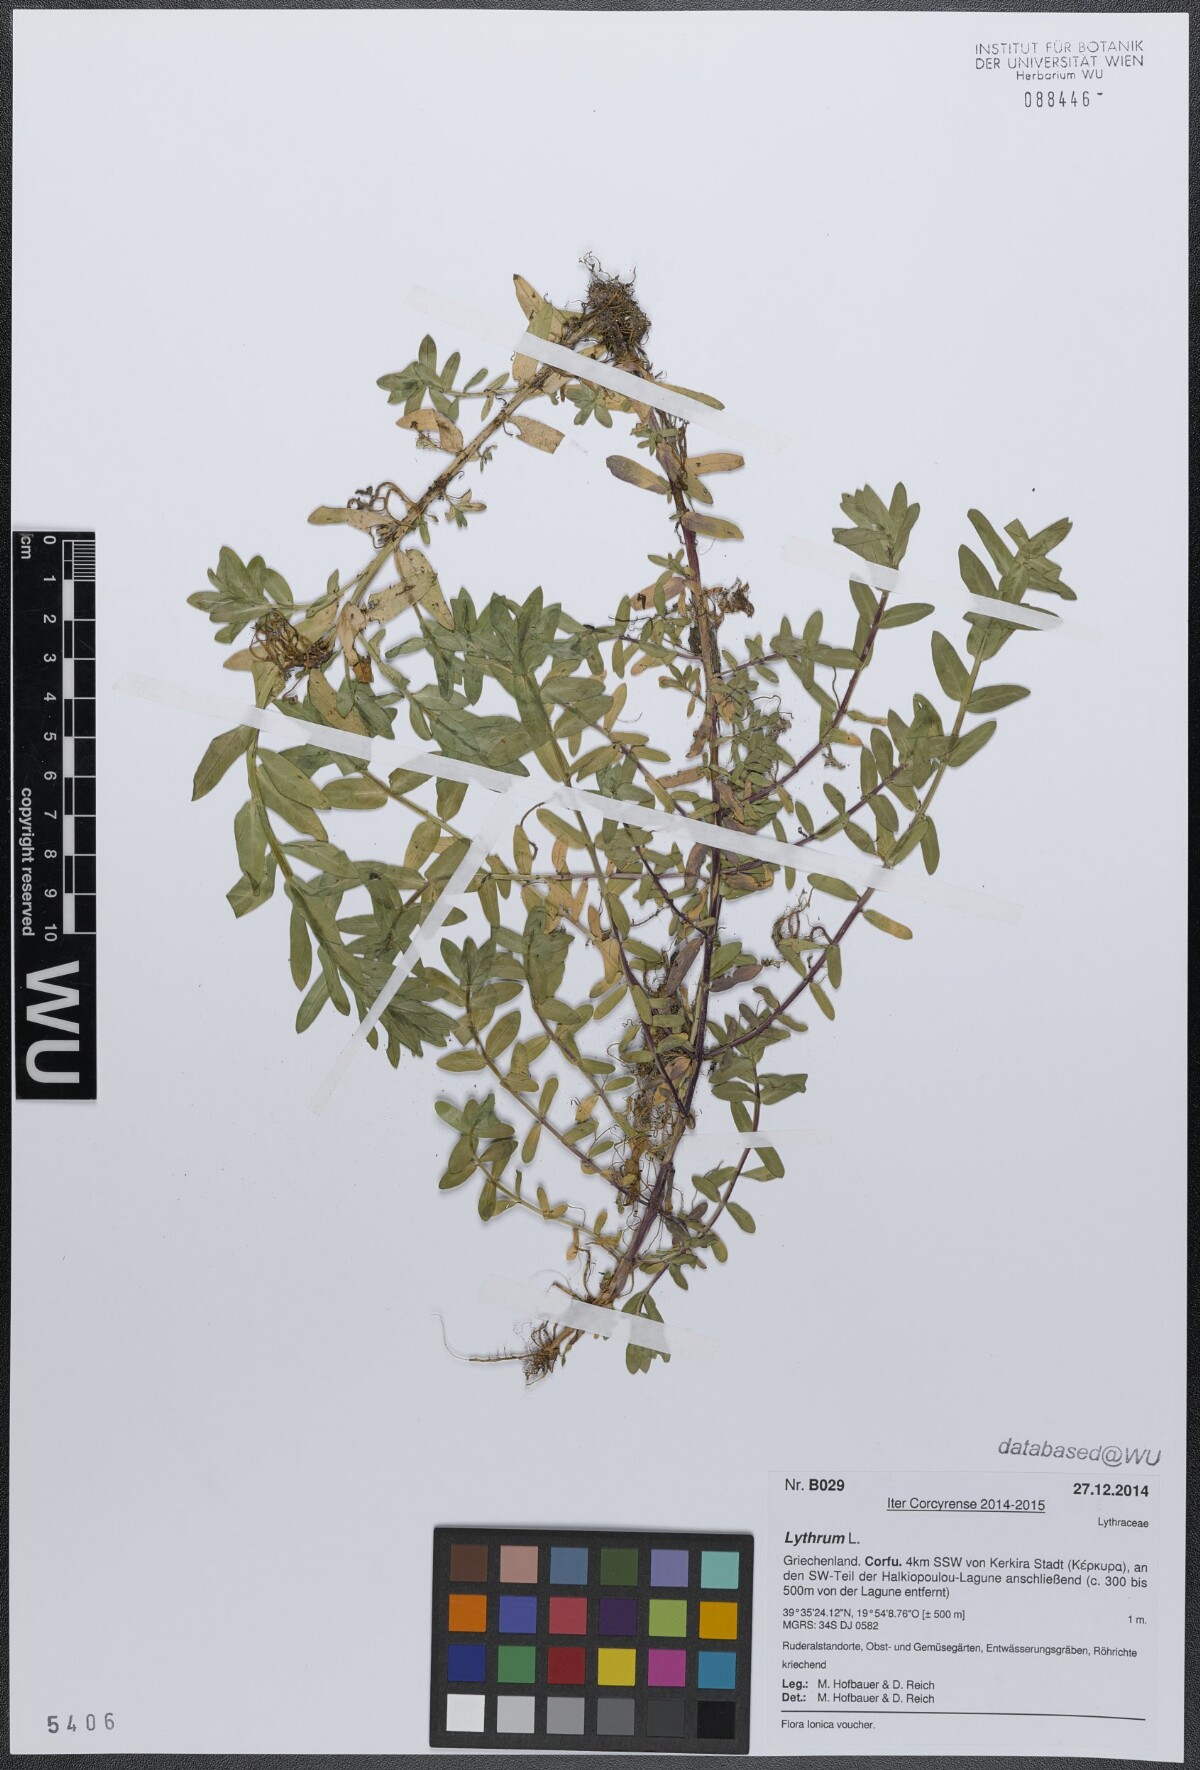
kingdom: Plantae
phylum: Tracheophyta
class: Magnoliopsida
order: Myrtales
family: Lythraceae
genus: Lythrum
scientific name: Lythrum
